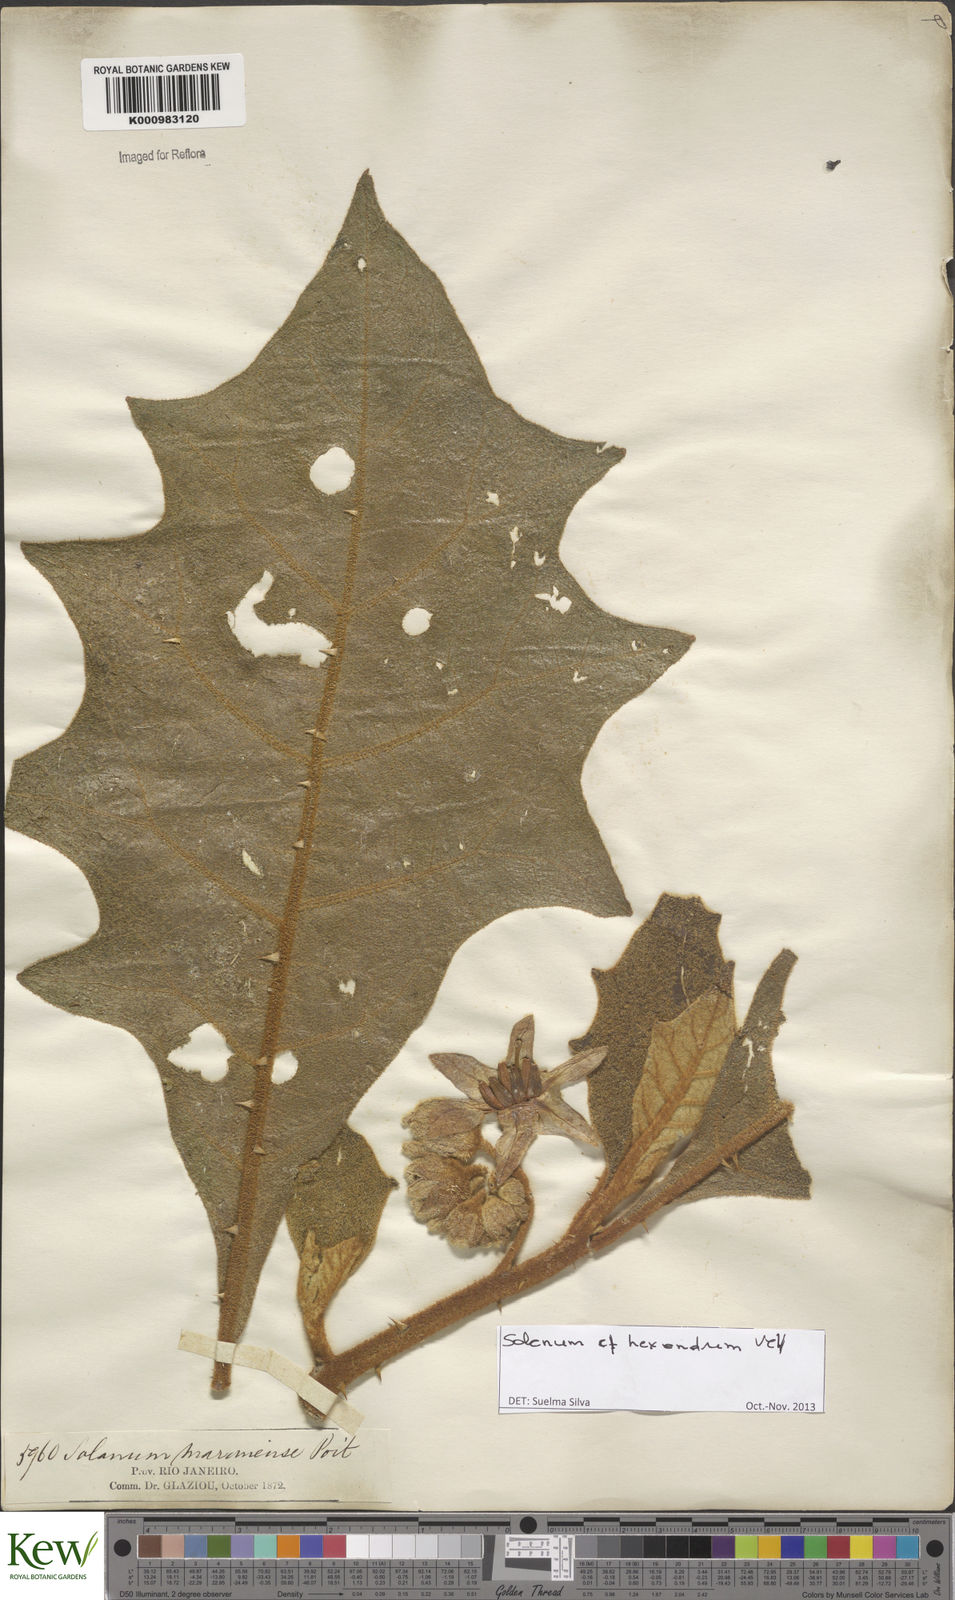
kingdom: Plantae
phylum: Tracheophyta
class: Magnoliopsida
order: Solanales
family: Solanaceae
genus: Solanum
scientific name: Solanum hexandrum
